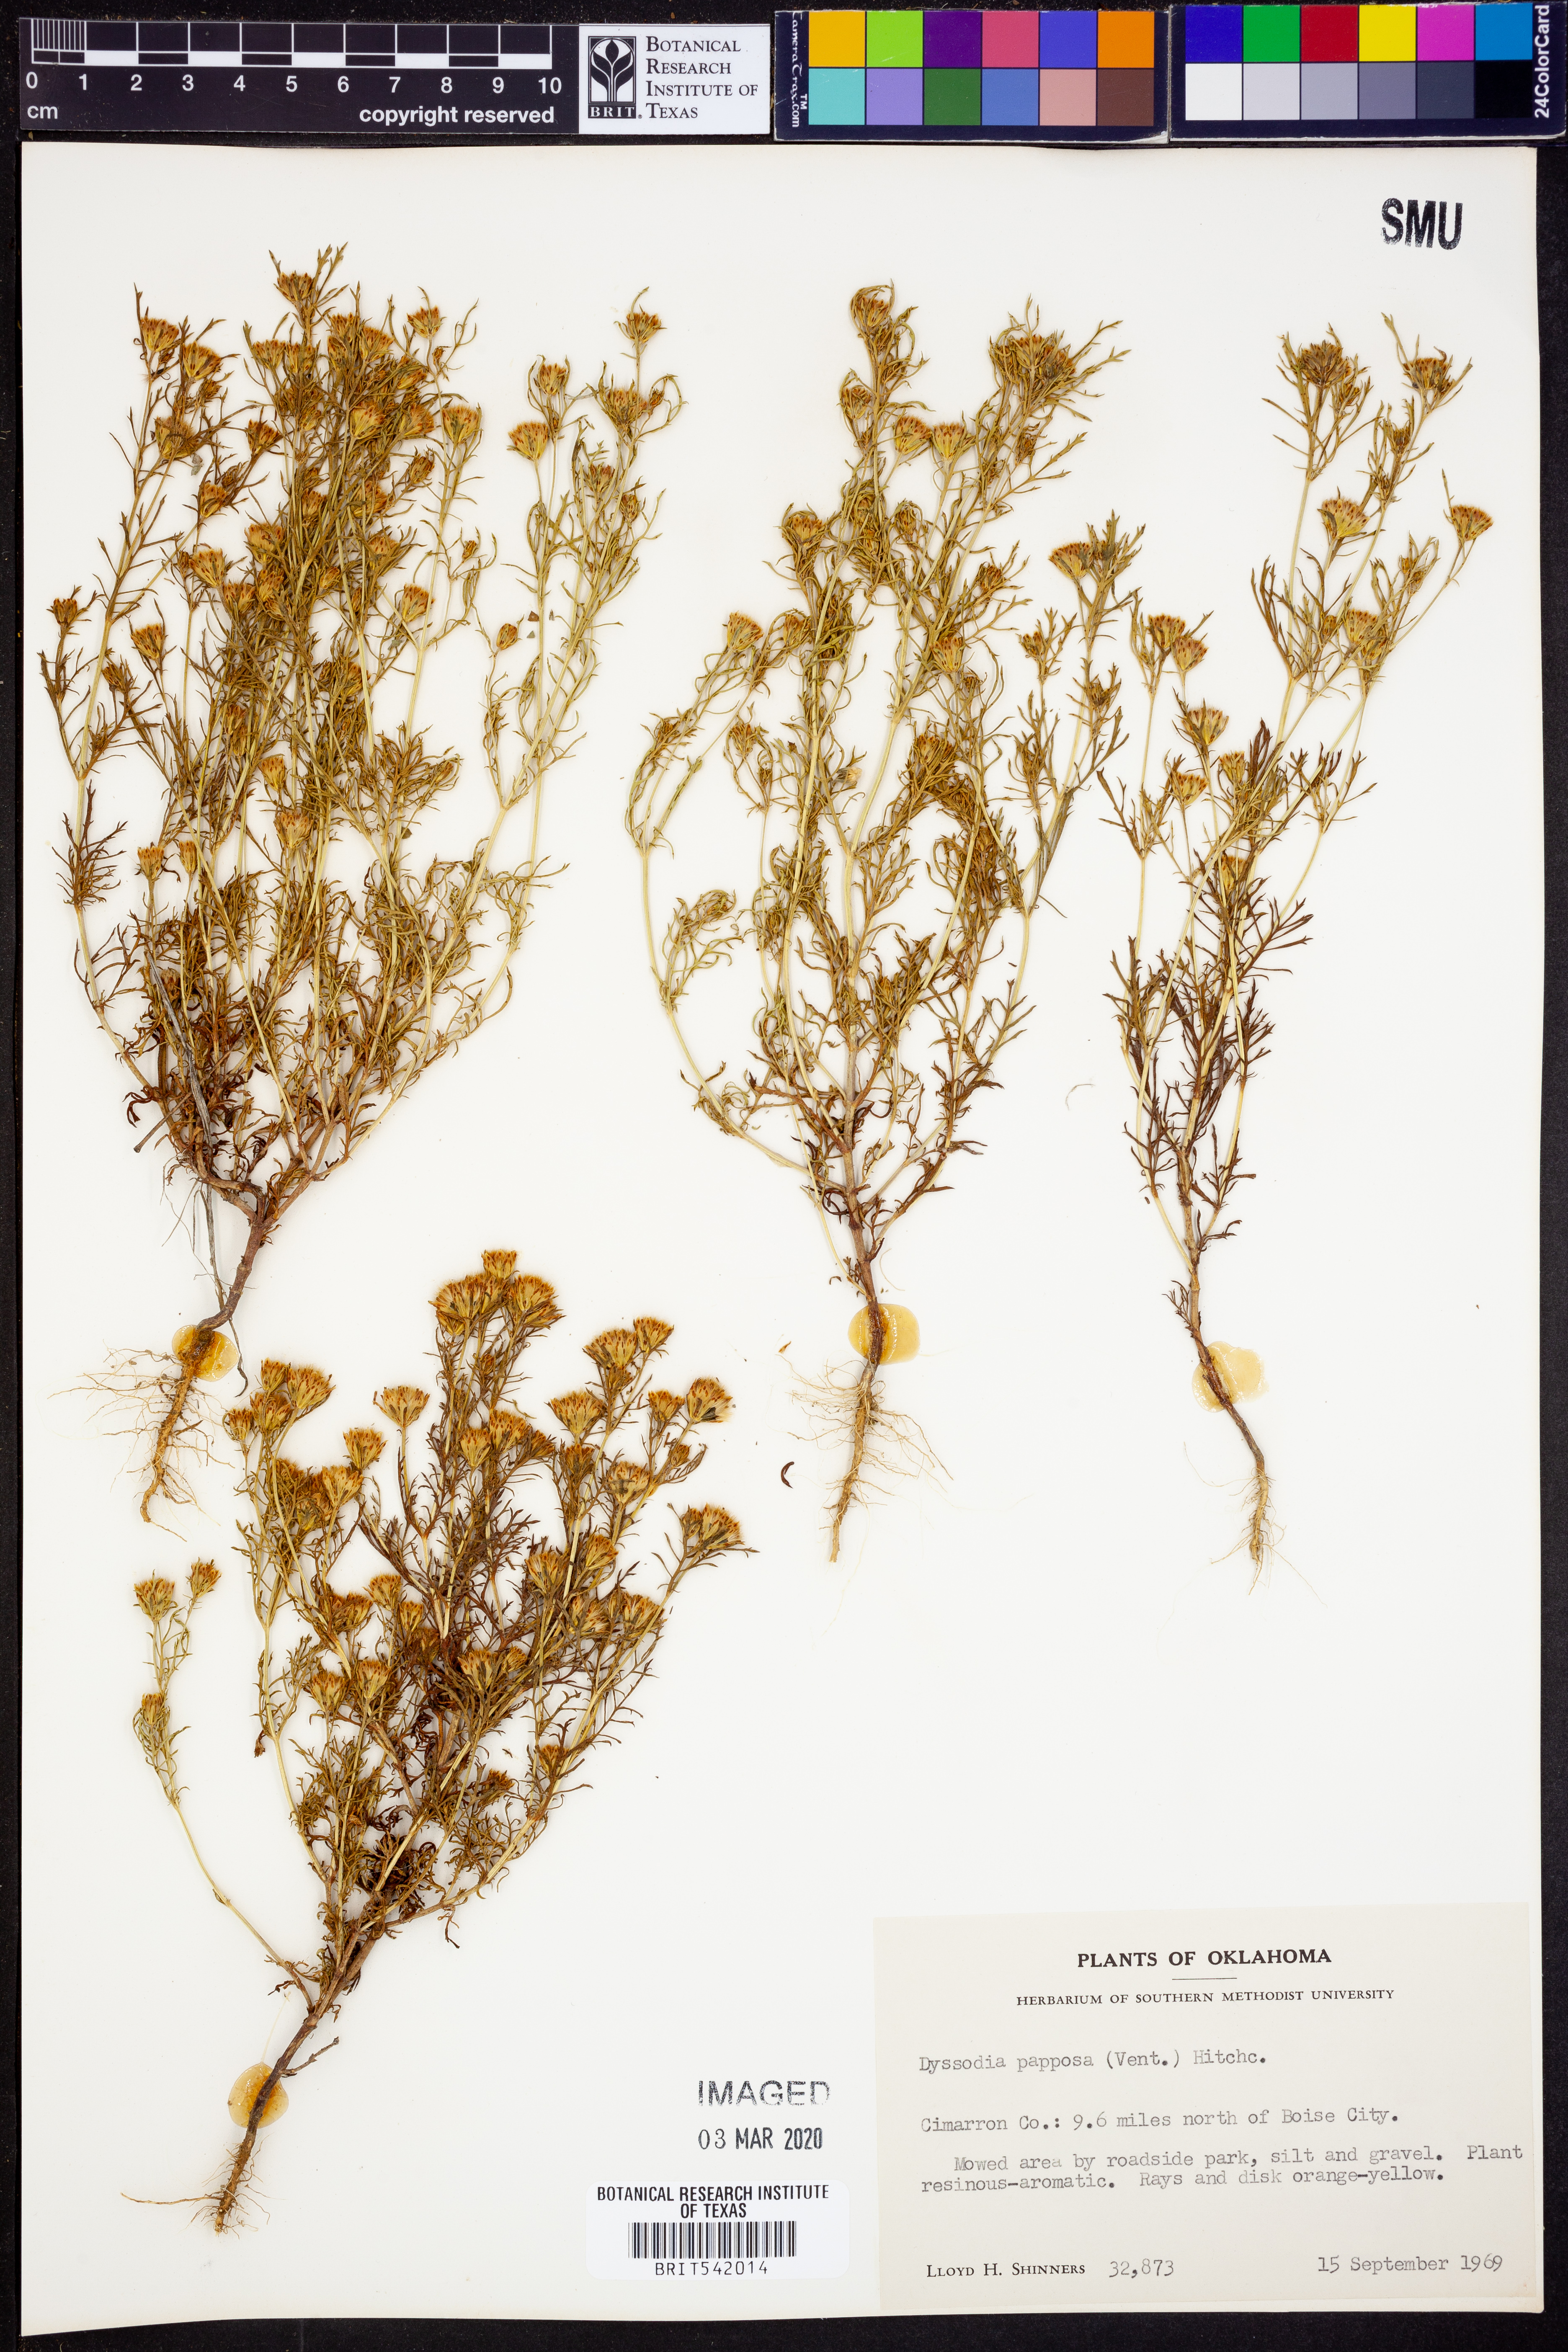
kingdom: Plantae
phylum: Tracheophyta
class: Magnoliopsida
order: Asterales
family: Asteraceae
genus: Dyssodia
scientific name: Dyssodia papposa
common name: Dogweed
